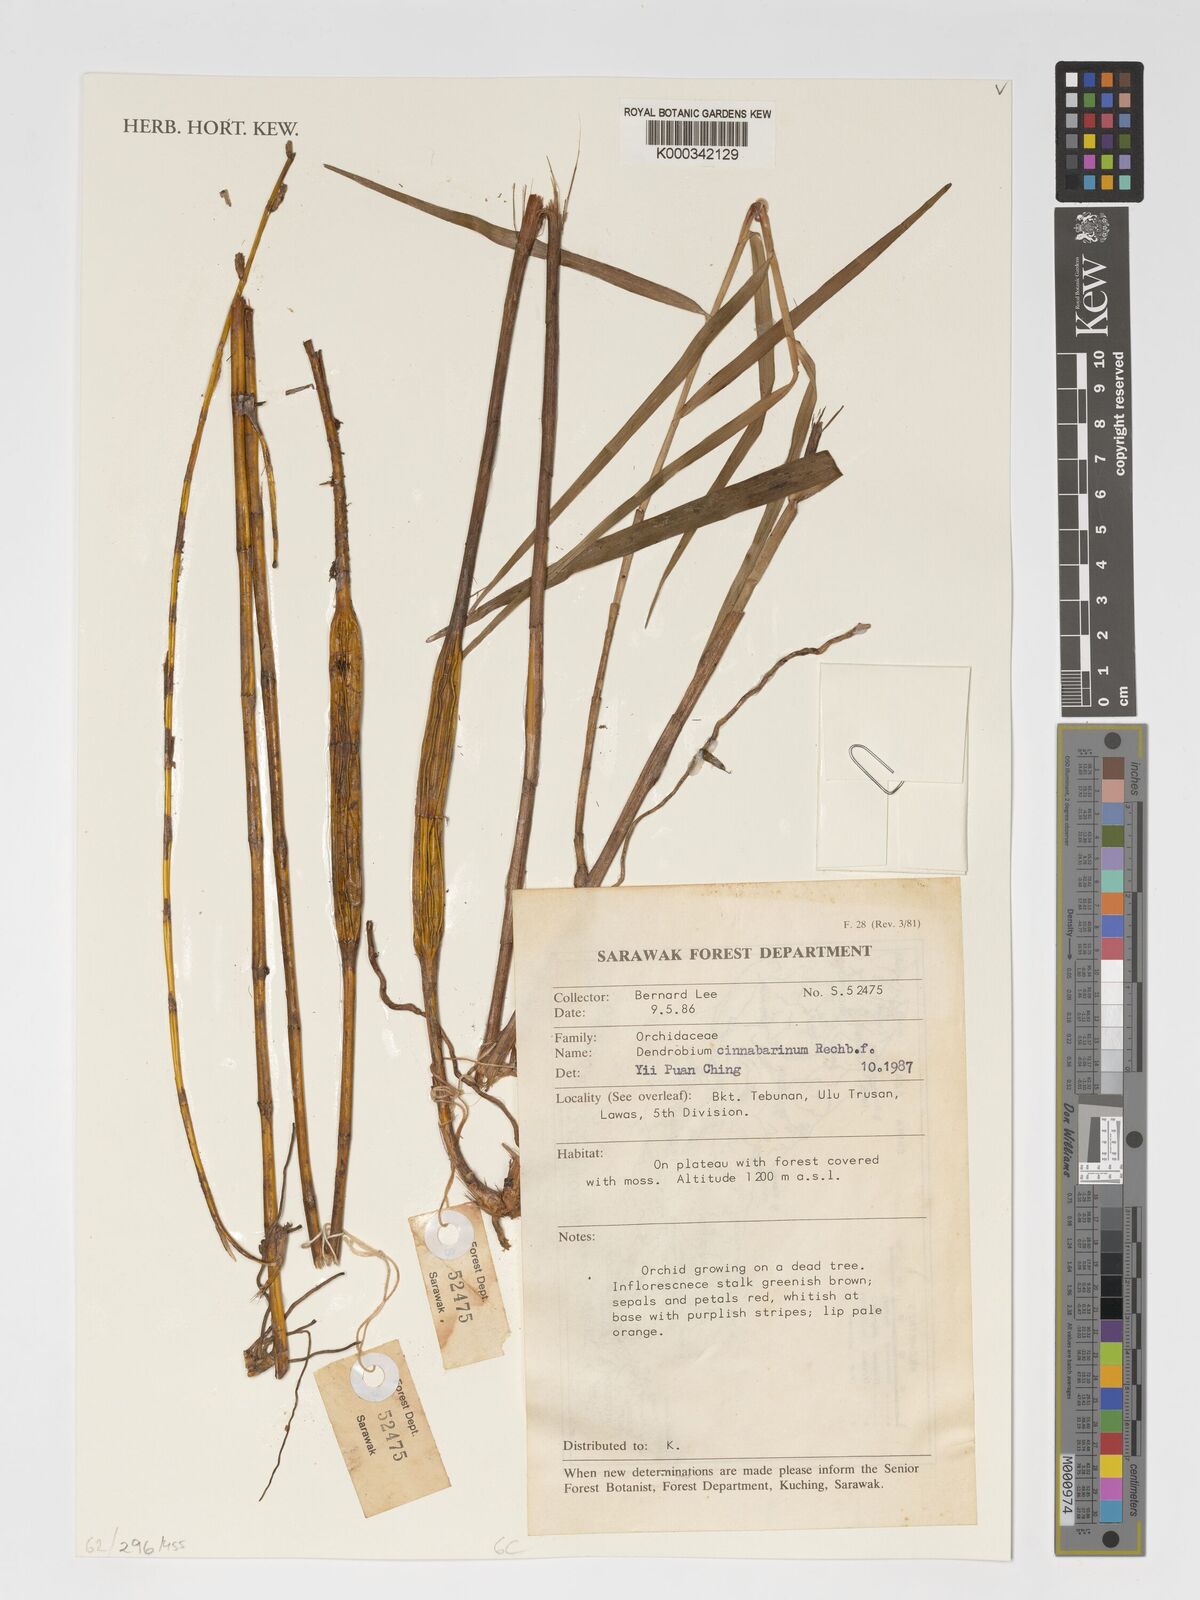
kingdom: Plantae
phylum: Tracheophyta
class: Liliopsida
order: Asparagales
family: Orchidaceae
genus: Dendrobium
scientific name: Dendrobium cinnabarinum
